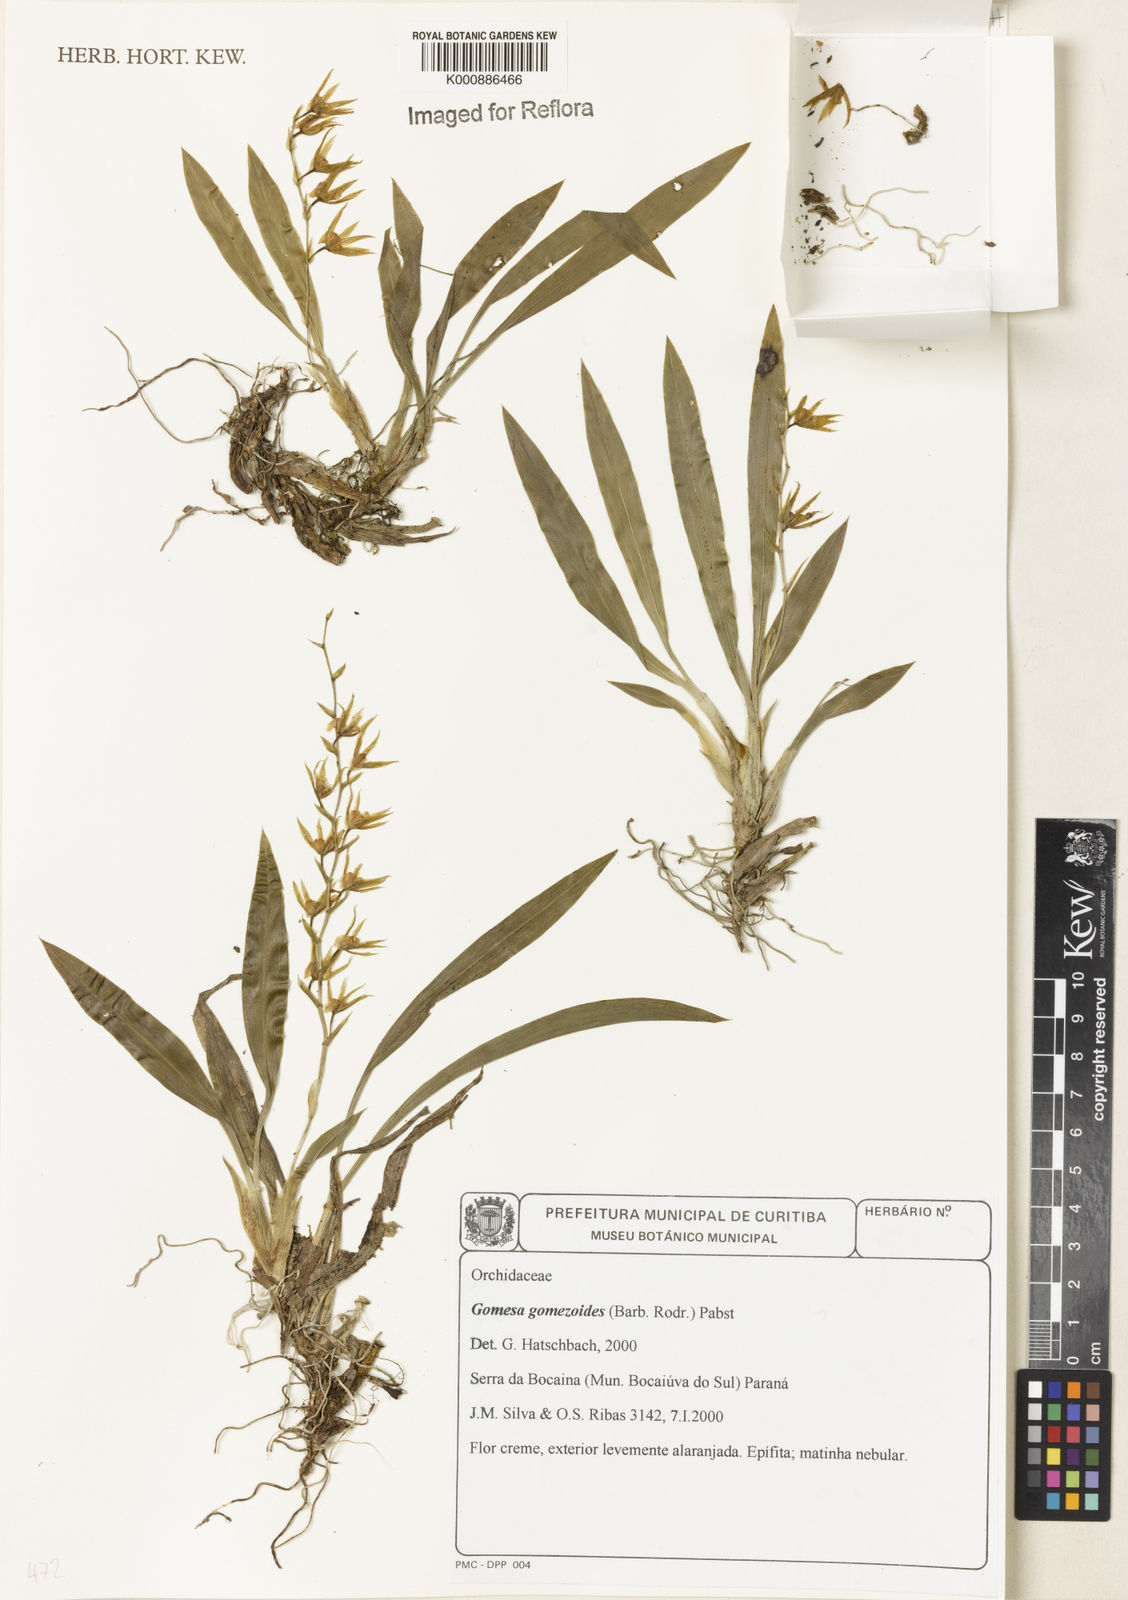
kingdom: Plantae
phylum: Tracheophyta
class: Liliopsida
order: Asparagales
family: Orchidaceae
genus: Gomesa
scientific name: Gomesa gomezoides
